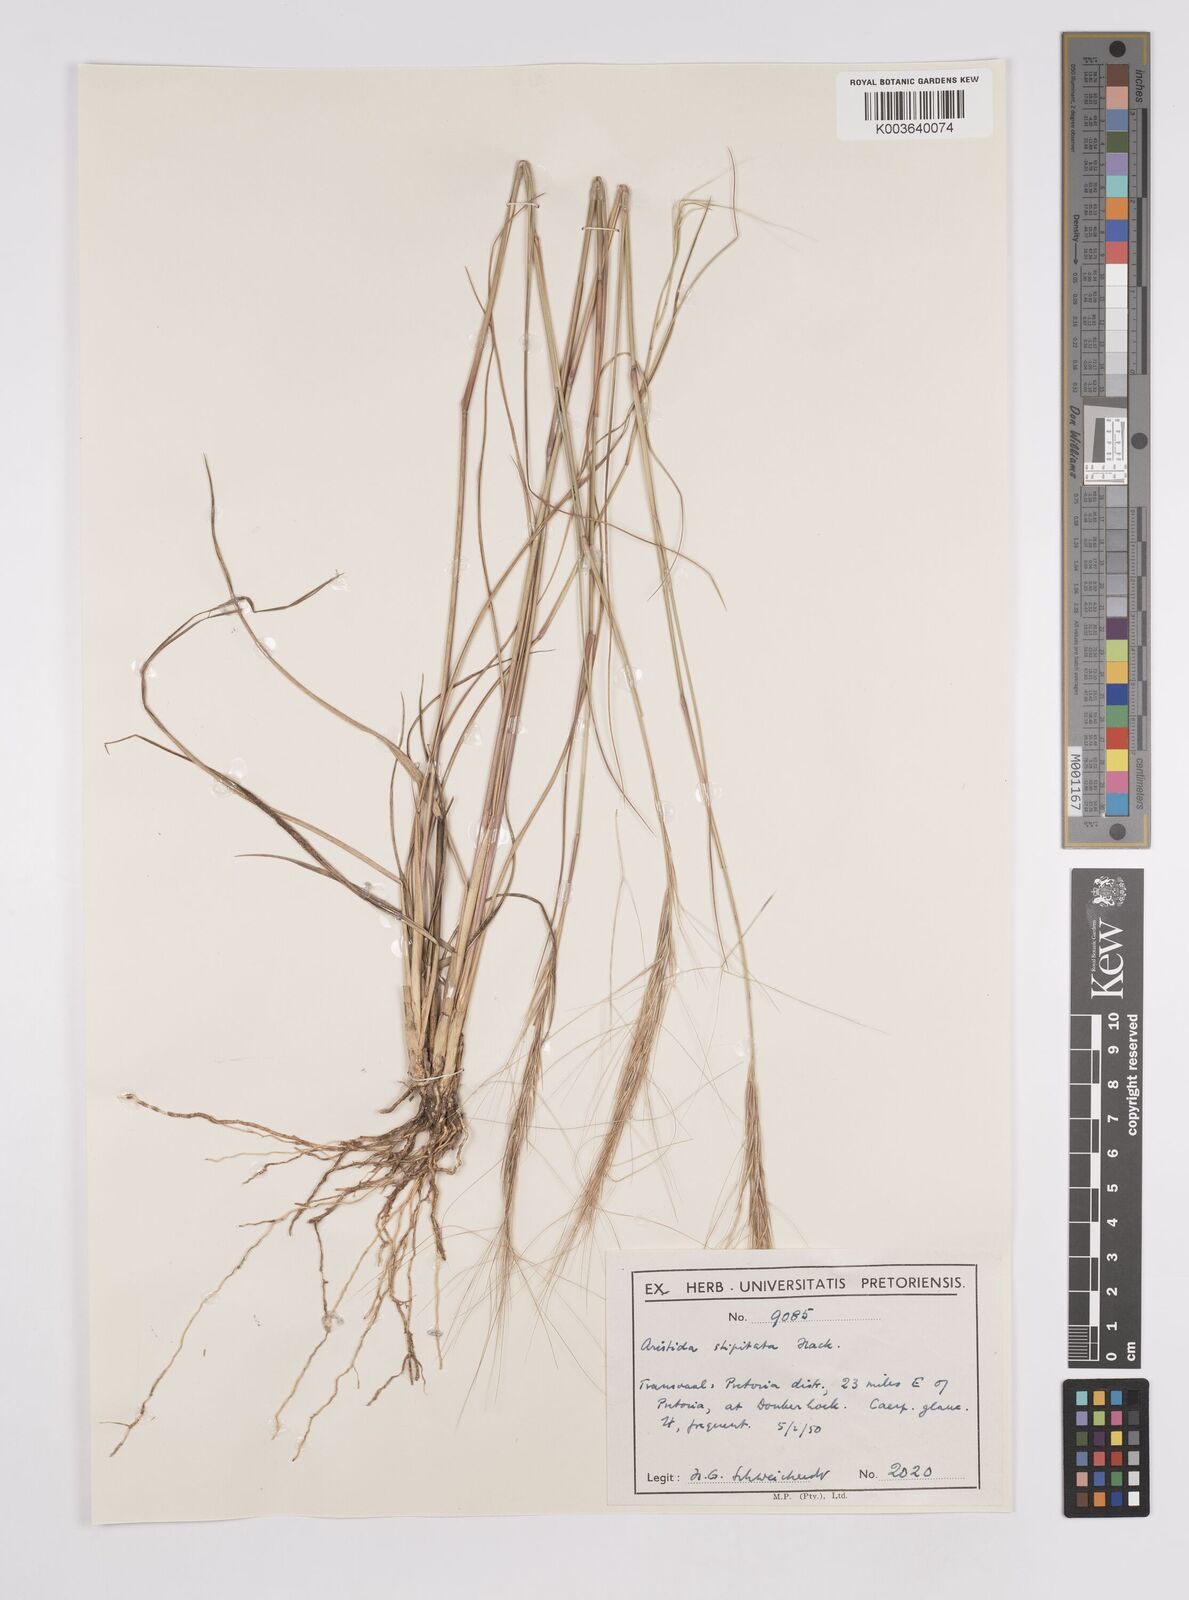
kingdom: Plantae
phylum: Tracheophyta
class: Liliopsida
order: Poales
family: Poaceae
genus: Aristida
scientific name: Aristida stipitata
